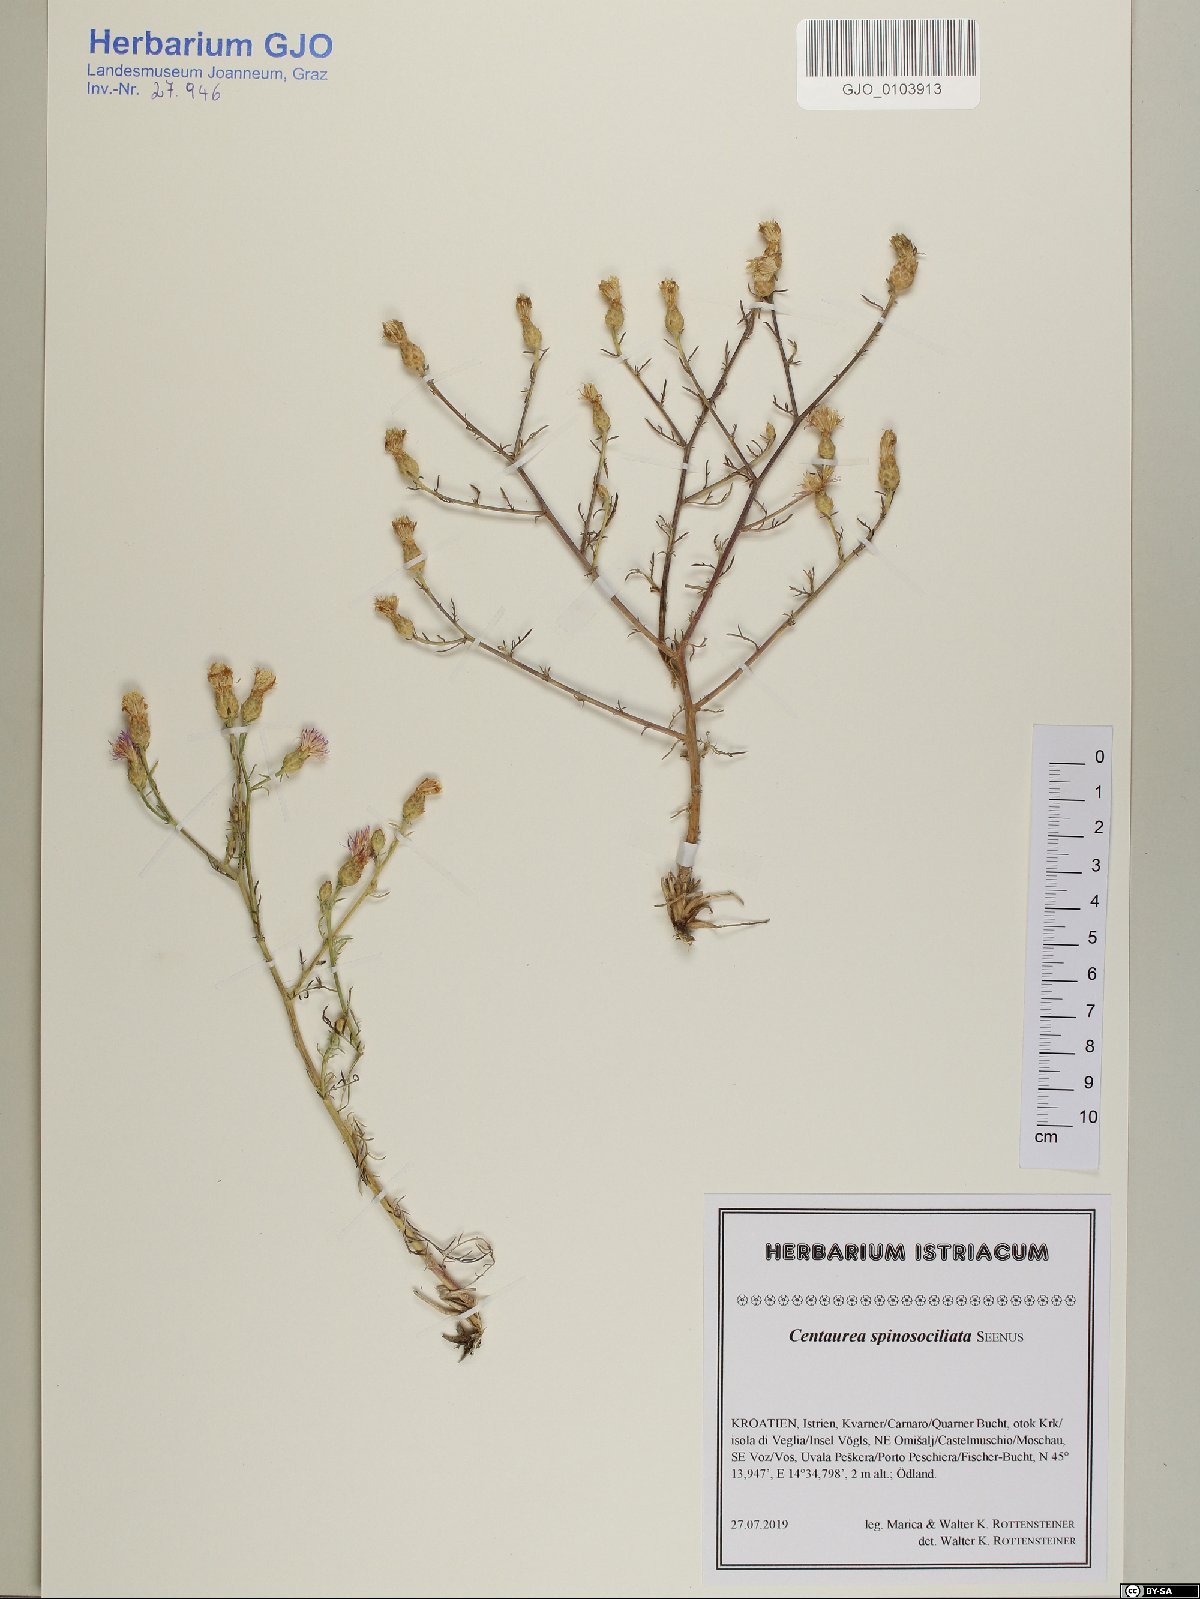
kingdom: Plantae
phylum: Tracheophyta
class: Magnoliopsida
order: Asterales
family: Asteraceae
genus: Centaurea
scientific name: Centaurea spinosociliata
